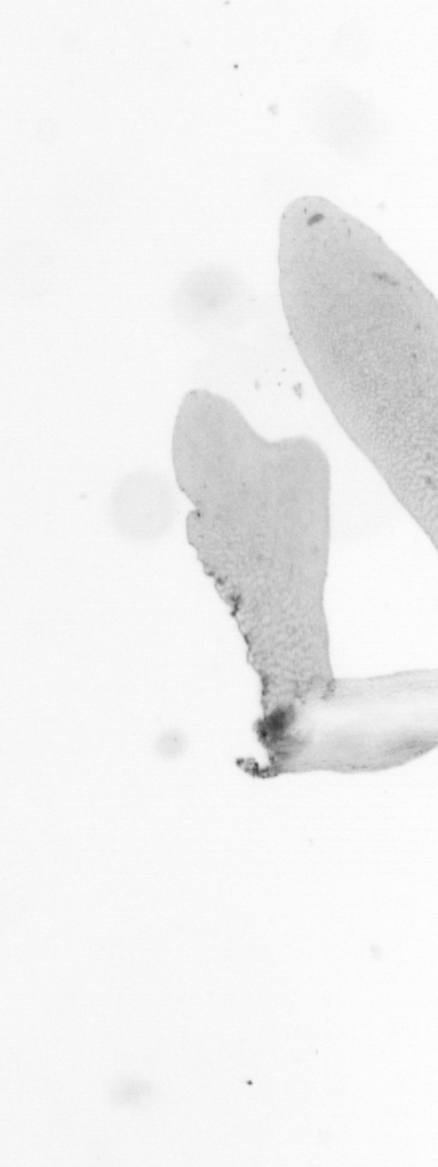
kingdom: Animalia
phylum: Chordata
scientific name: Chordata
